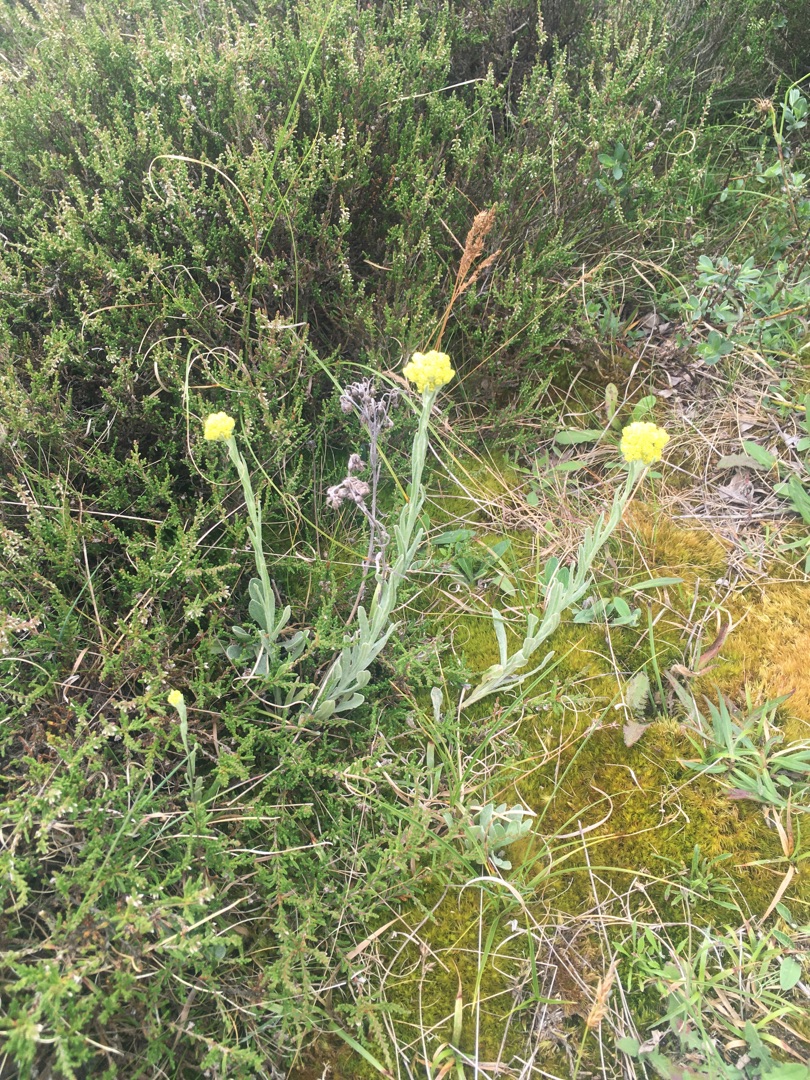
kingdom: Plantae
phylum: Tracheophyta
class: Magnoliopsida
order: Asterales
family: Asteraceae
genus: Helichrysum
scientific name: Helichrysum arenarium
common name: Gul evighedsblomst
